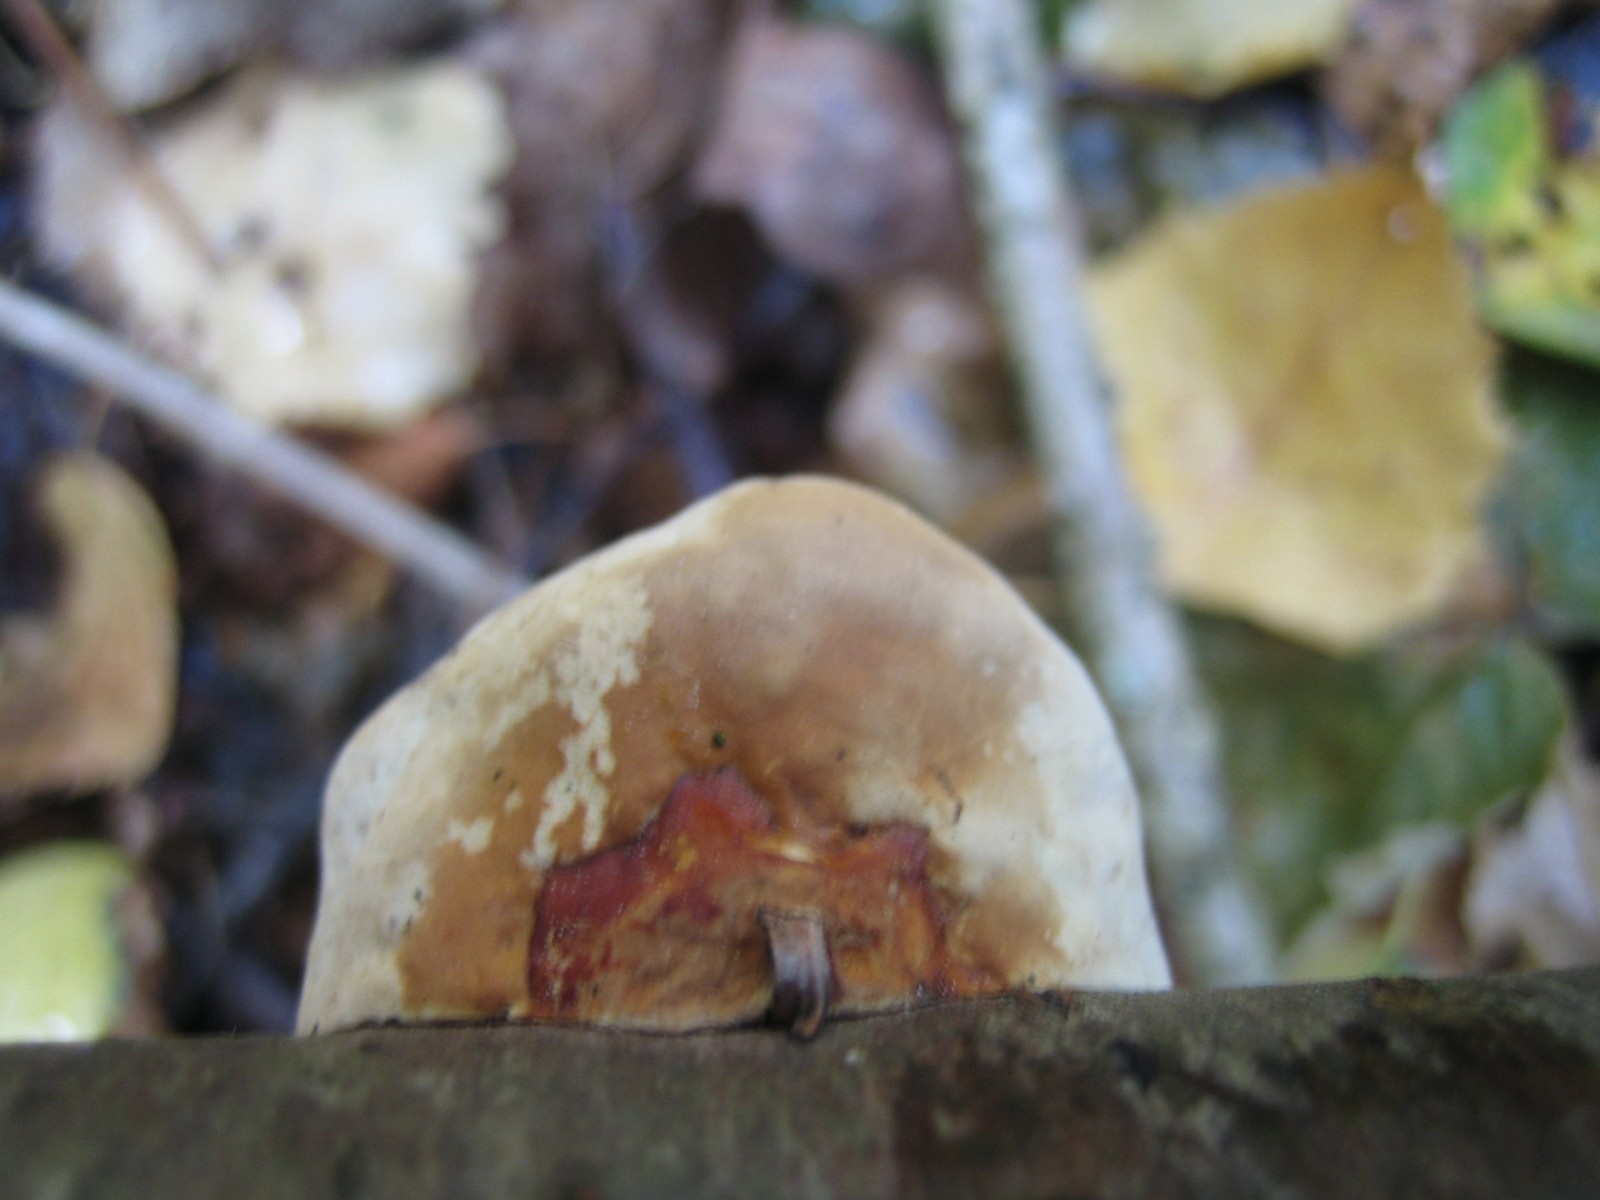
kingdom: Fungi
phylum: Basidiomycota
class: Agaricomycetes
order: Polyporales
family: Fomitopsidaceae
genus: Fomitopsis
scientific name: Fomitopsis pinicola
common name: randbæltet hovporesvamp
